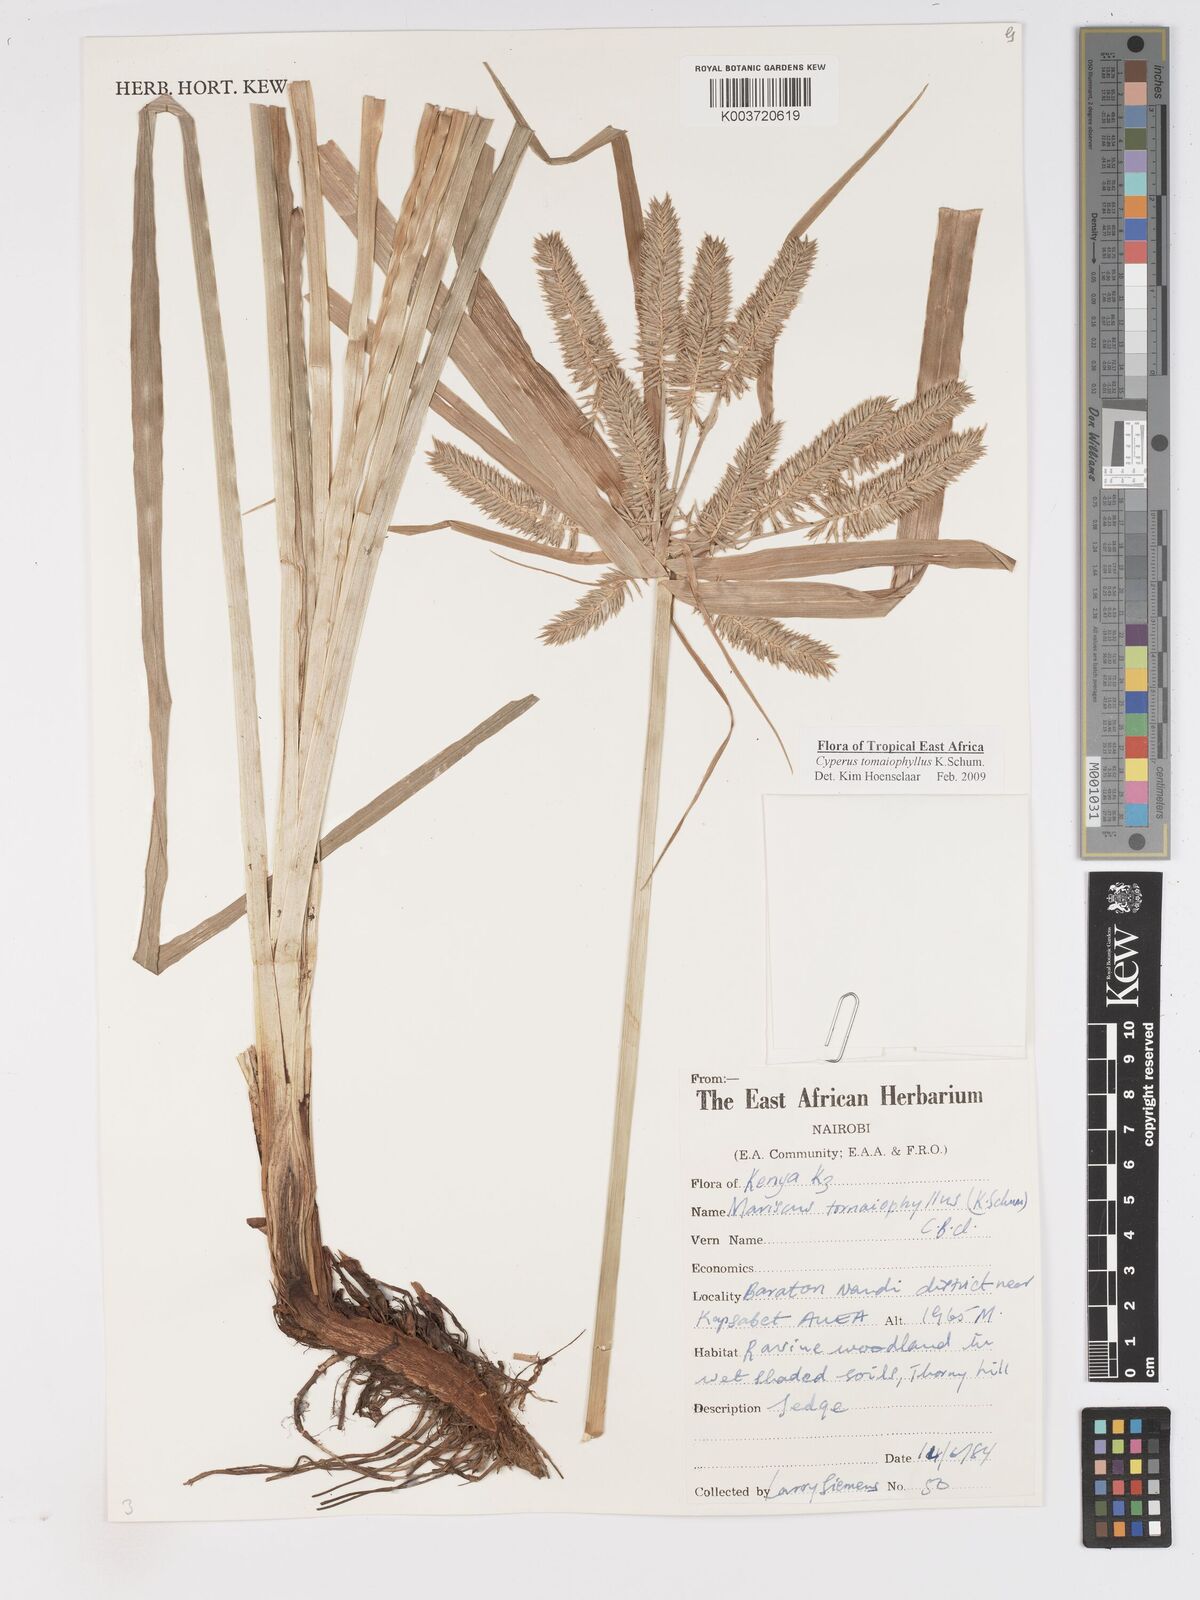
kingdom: Plantae
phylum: Tracheophyta
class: Liliopsida
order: Poales
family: Cyperaceae
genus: Cyperus
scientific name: Cyperus tomaiophyllus
